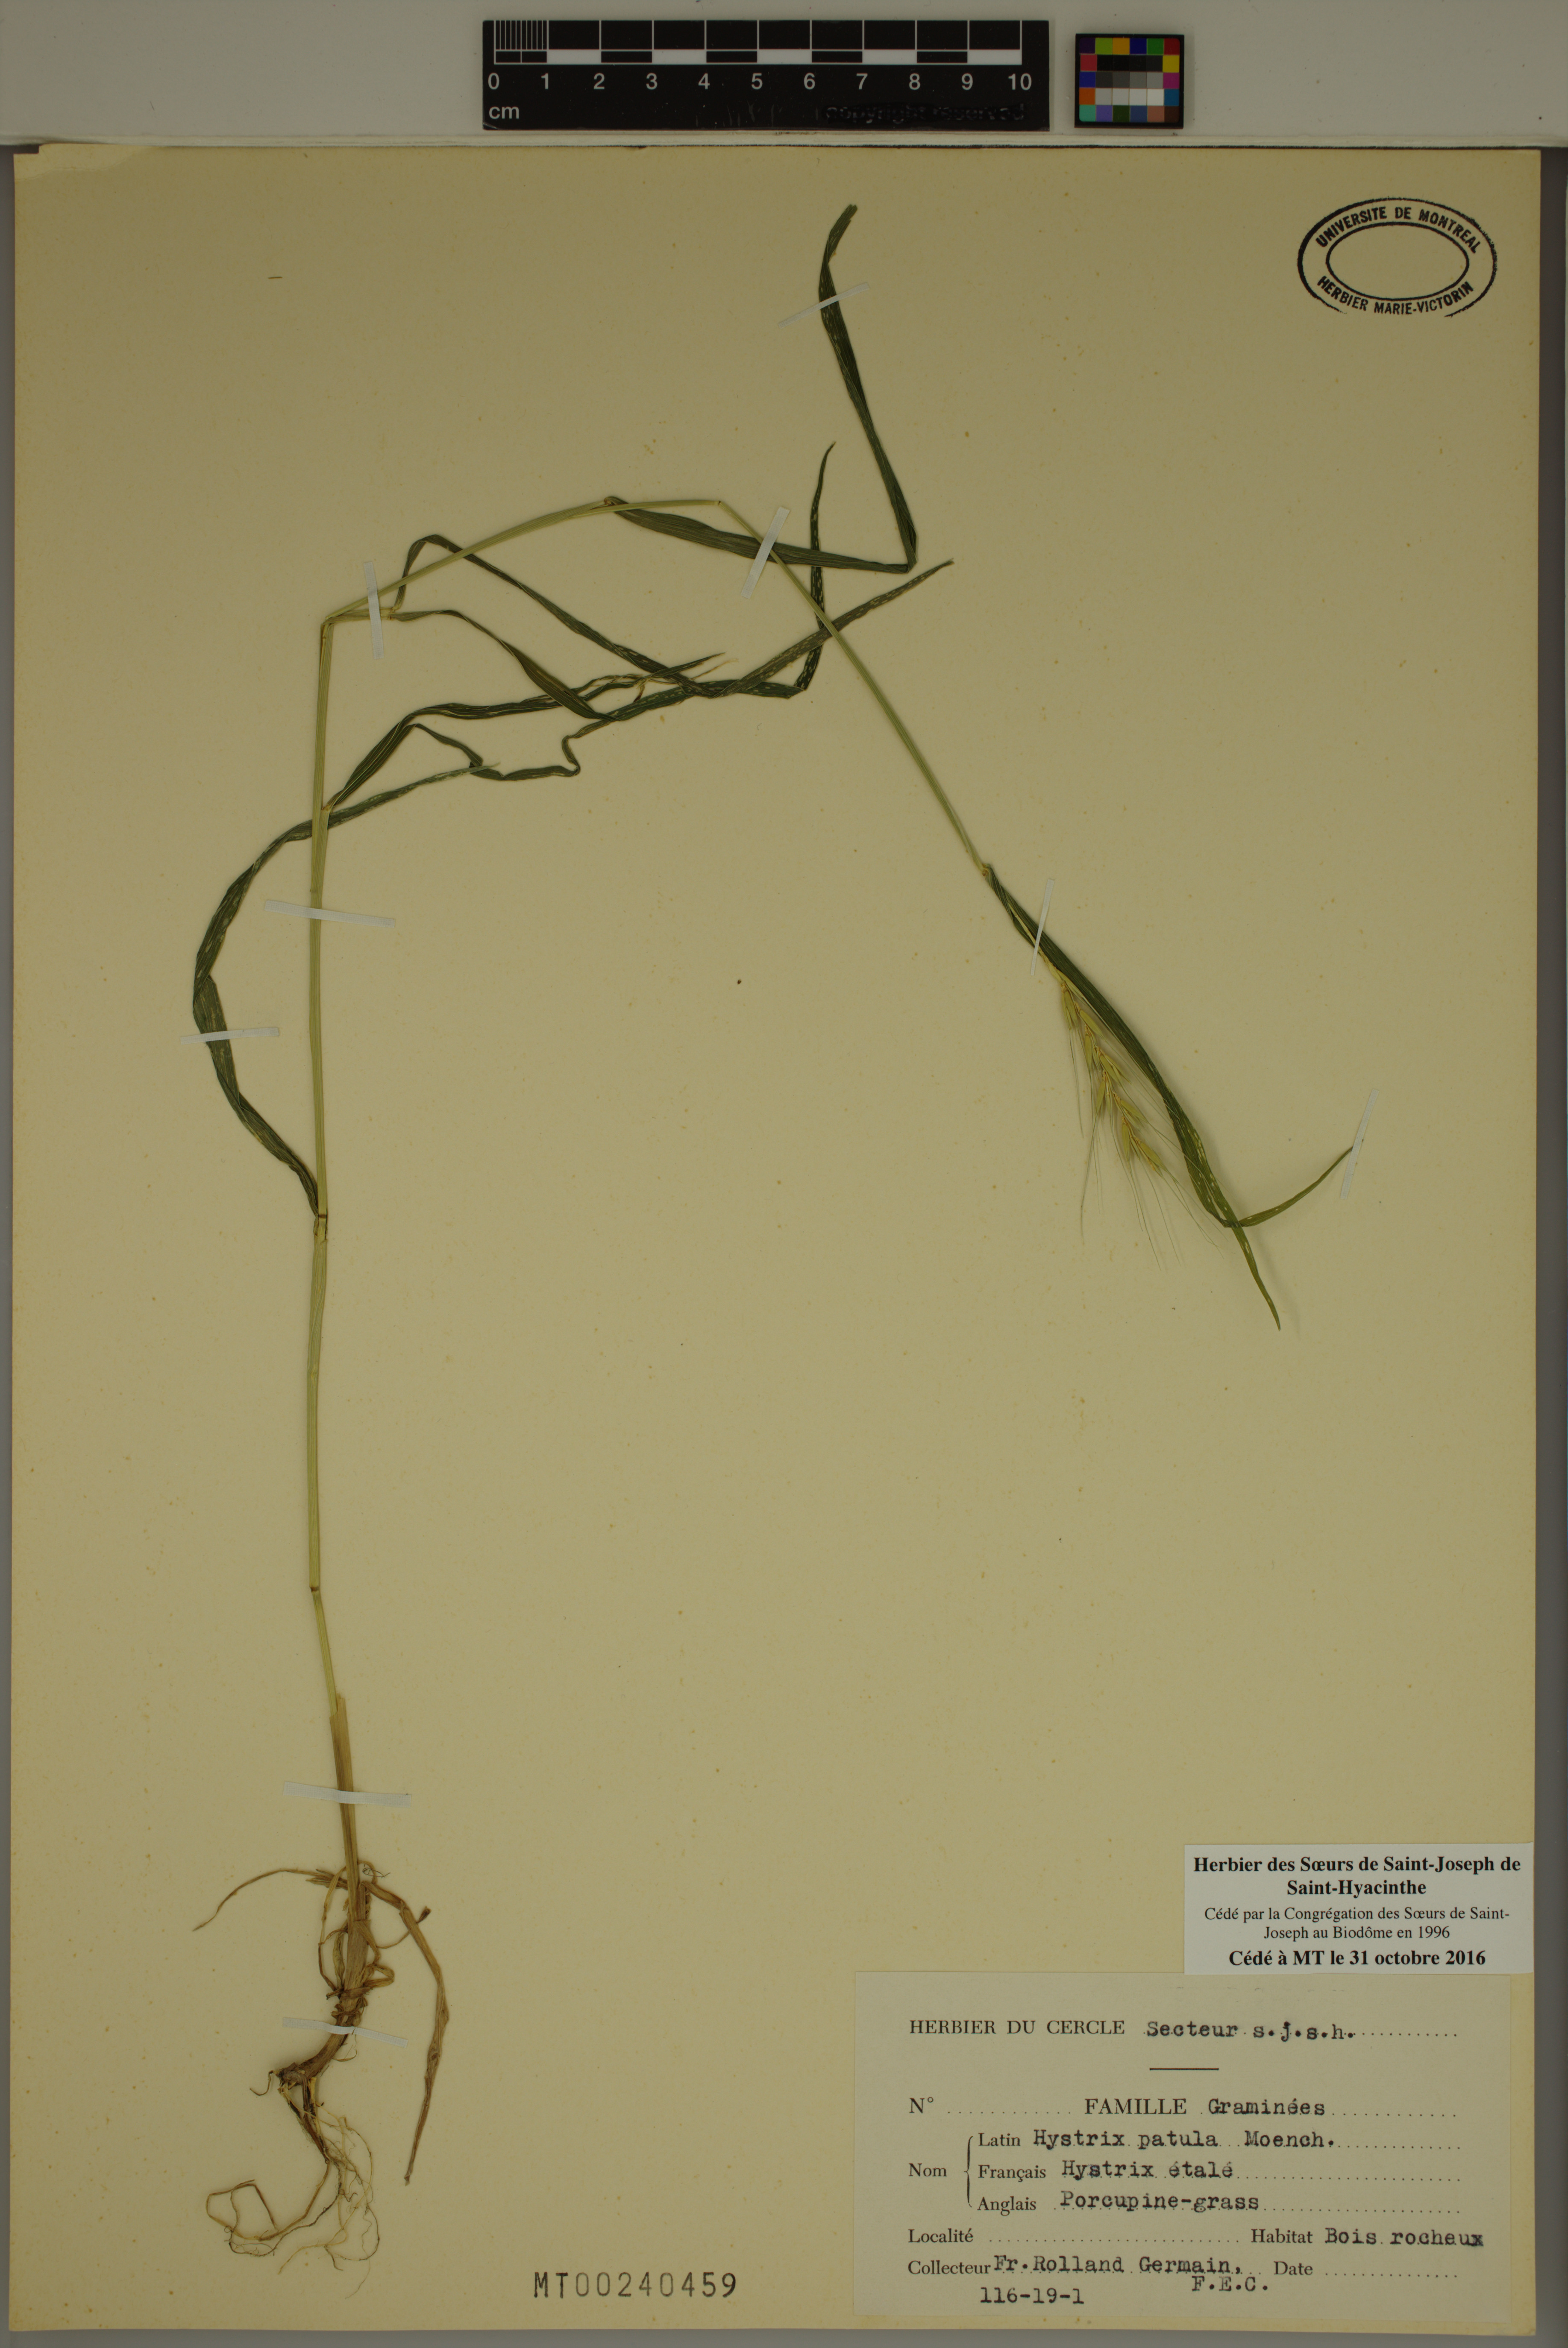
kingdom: Plantae
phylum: Tracheophyta
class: Liliopsida
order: Poales
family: Poaceae
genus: Elymus
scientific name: Elymus hystrix
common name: Bottlebrush grass
